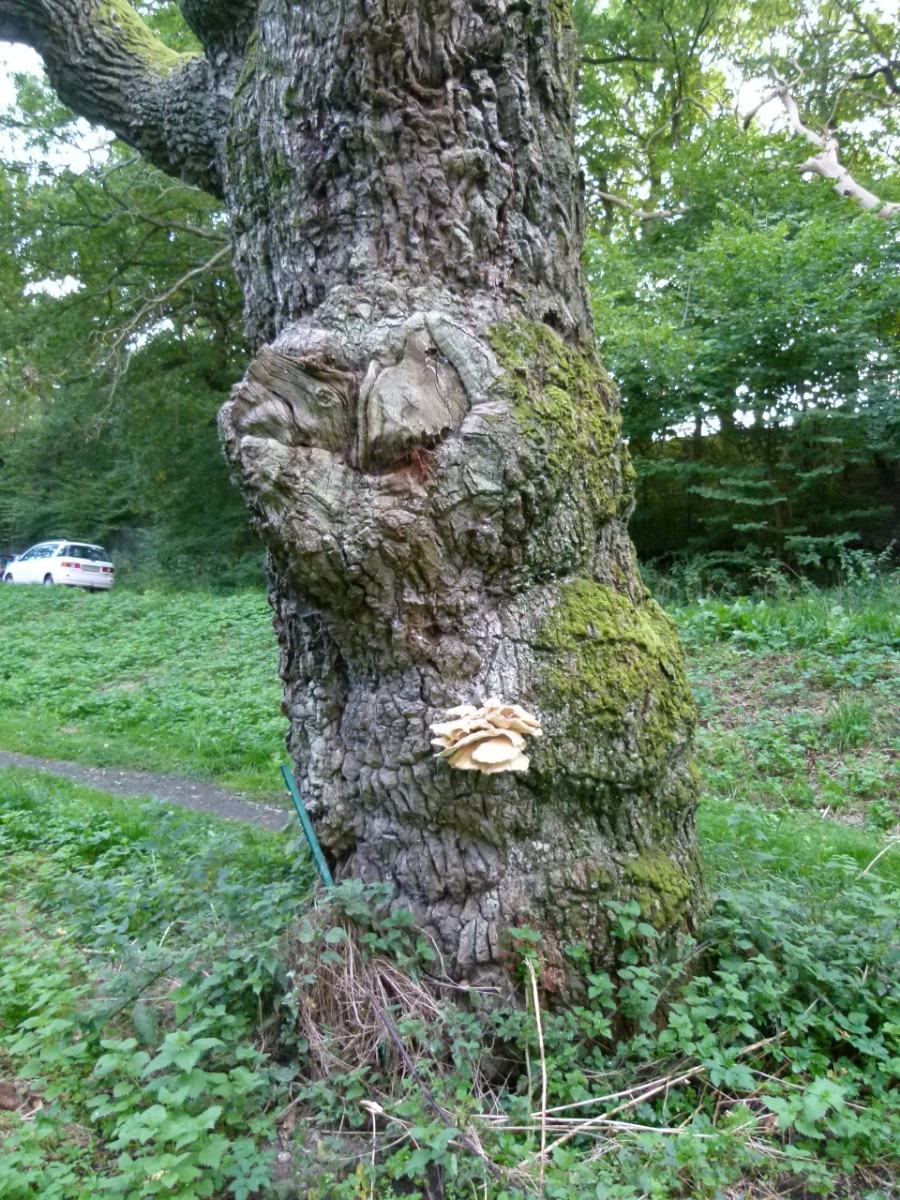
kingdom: Fungi
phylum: Basidiomycota
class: Agaricomycetes
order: Polyporales
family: Laetiporaceae
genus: Laetiporus
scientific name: Laetiporus sulphureus
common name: svovlporesvamp
